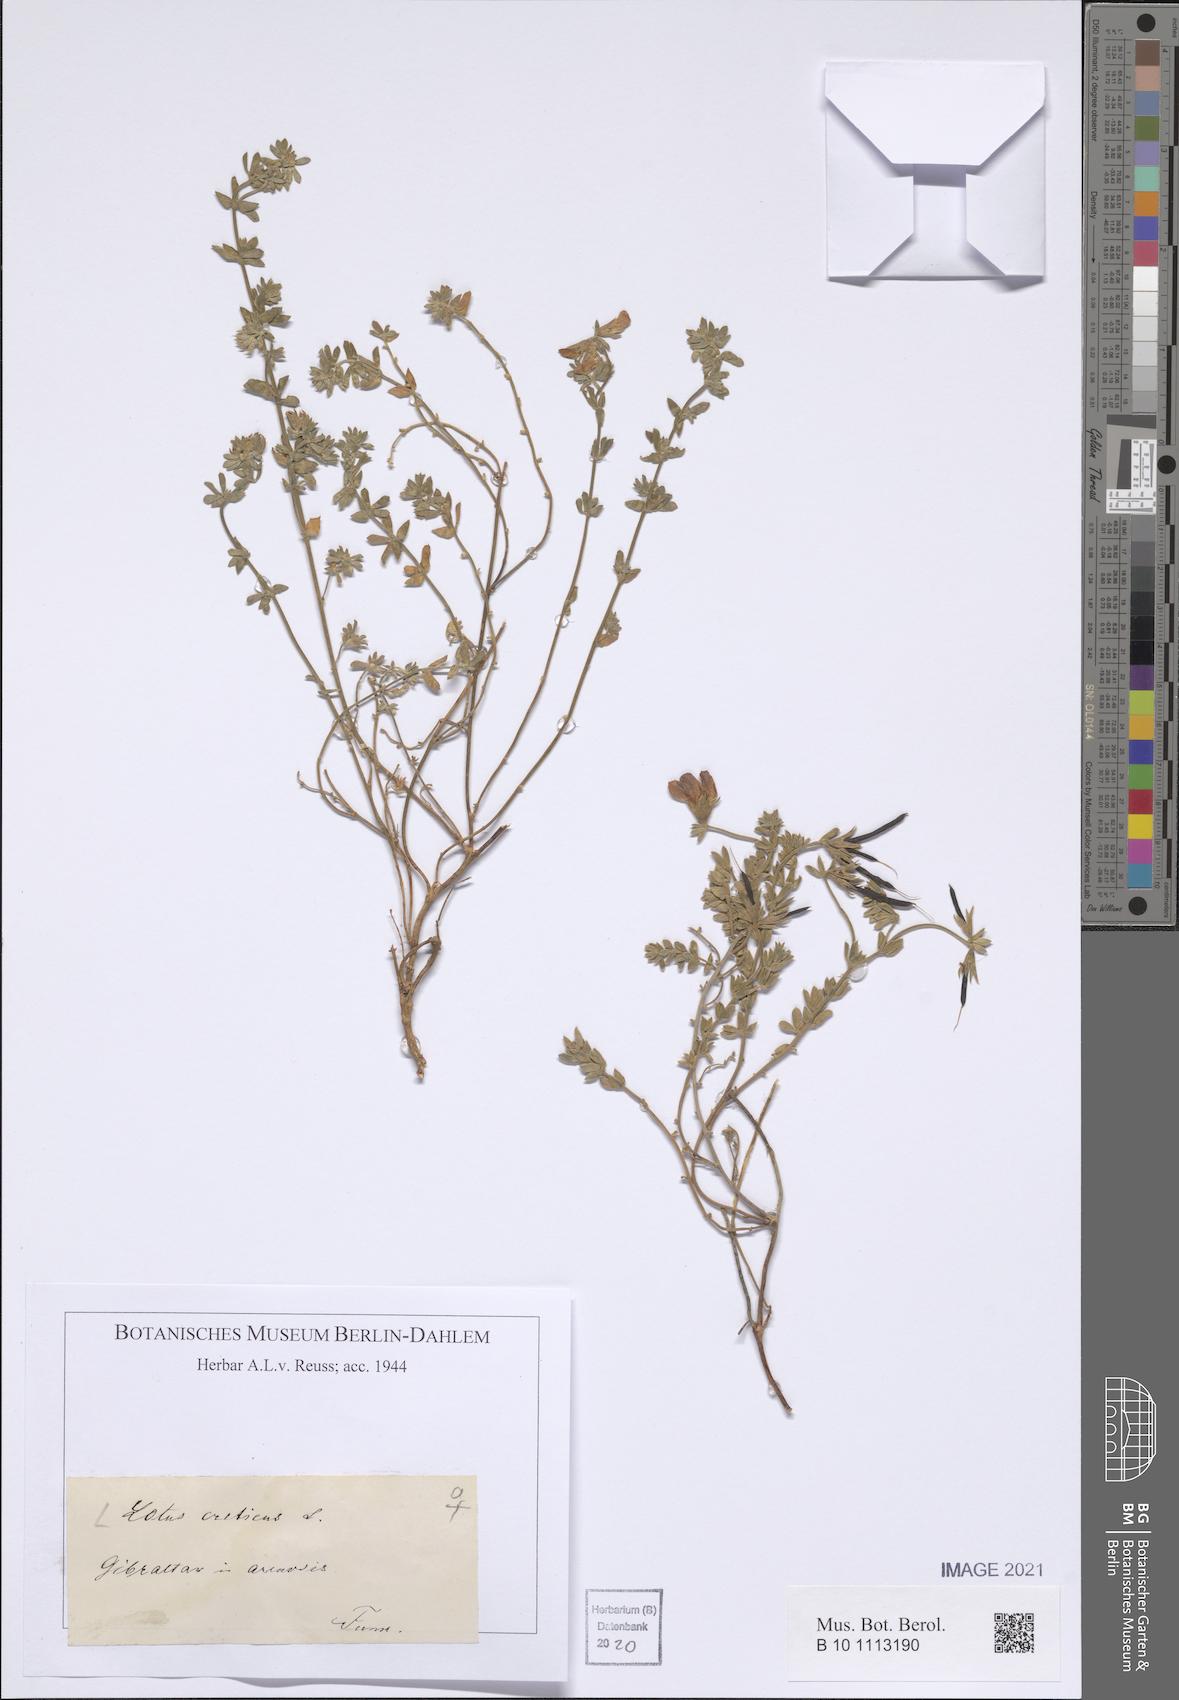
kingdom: Plantae
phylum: Tracheophyta
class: Magnoliopsida
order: Fabales
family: Fabaceae
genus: Lotus
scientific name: Lotus creticus
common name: Cretan bird's-foot trefoil
